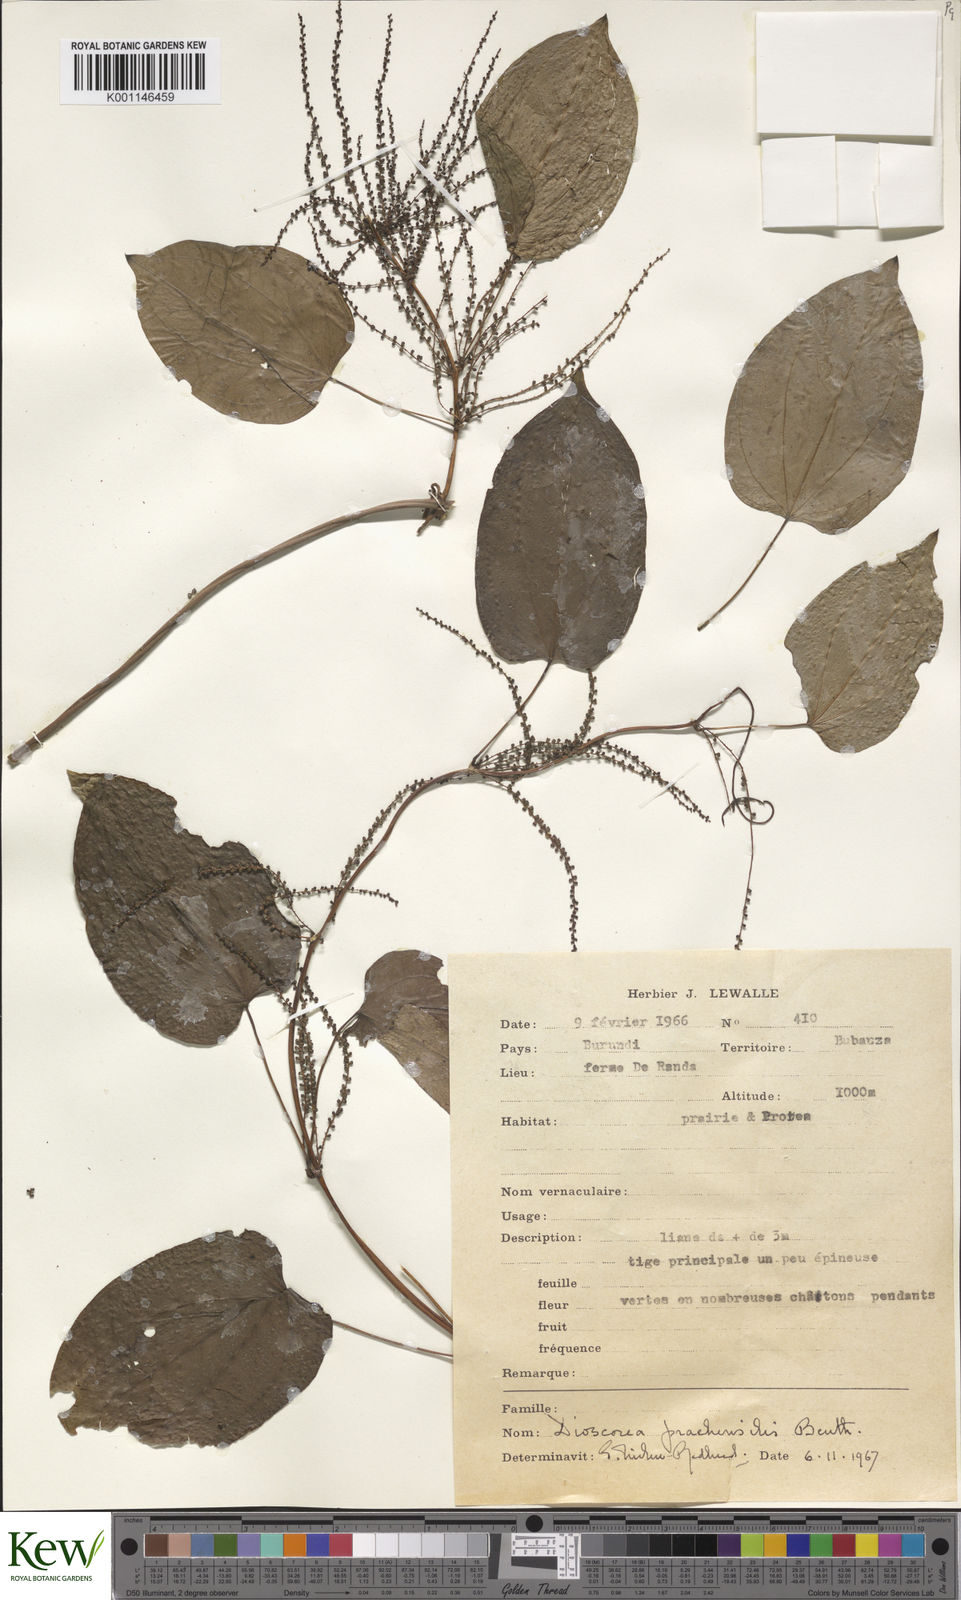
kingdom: Plantae
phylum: Tracheophyta
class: Liliopsida
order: Dioscoreales
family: Dioscoreaceae
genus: Dioscorea
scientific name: Dioscorea praehensilis
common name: Bush yam
